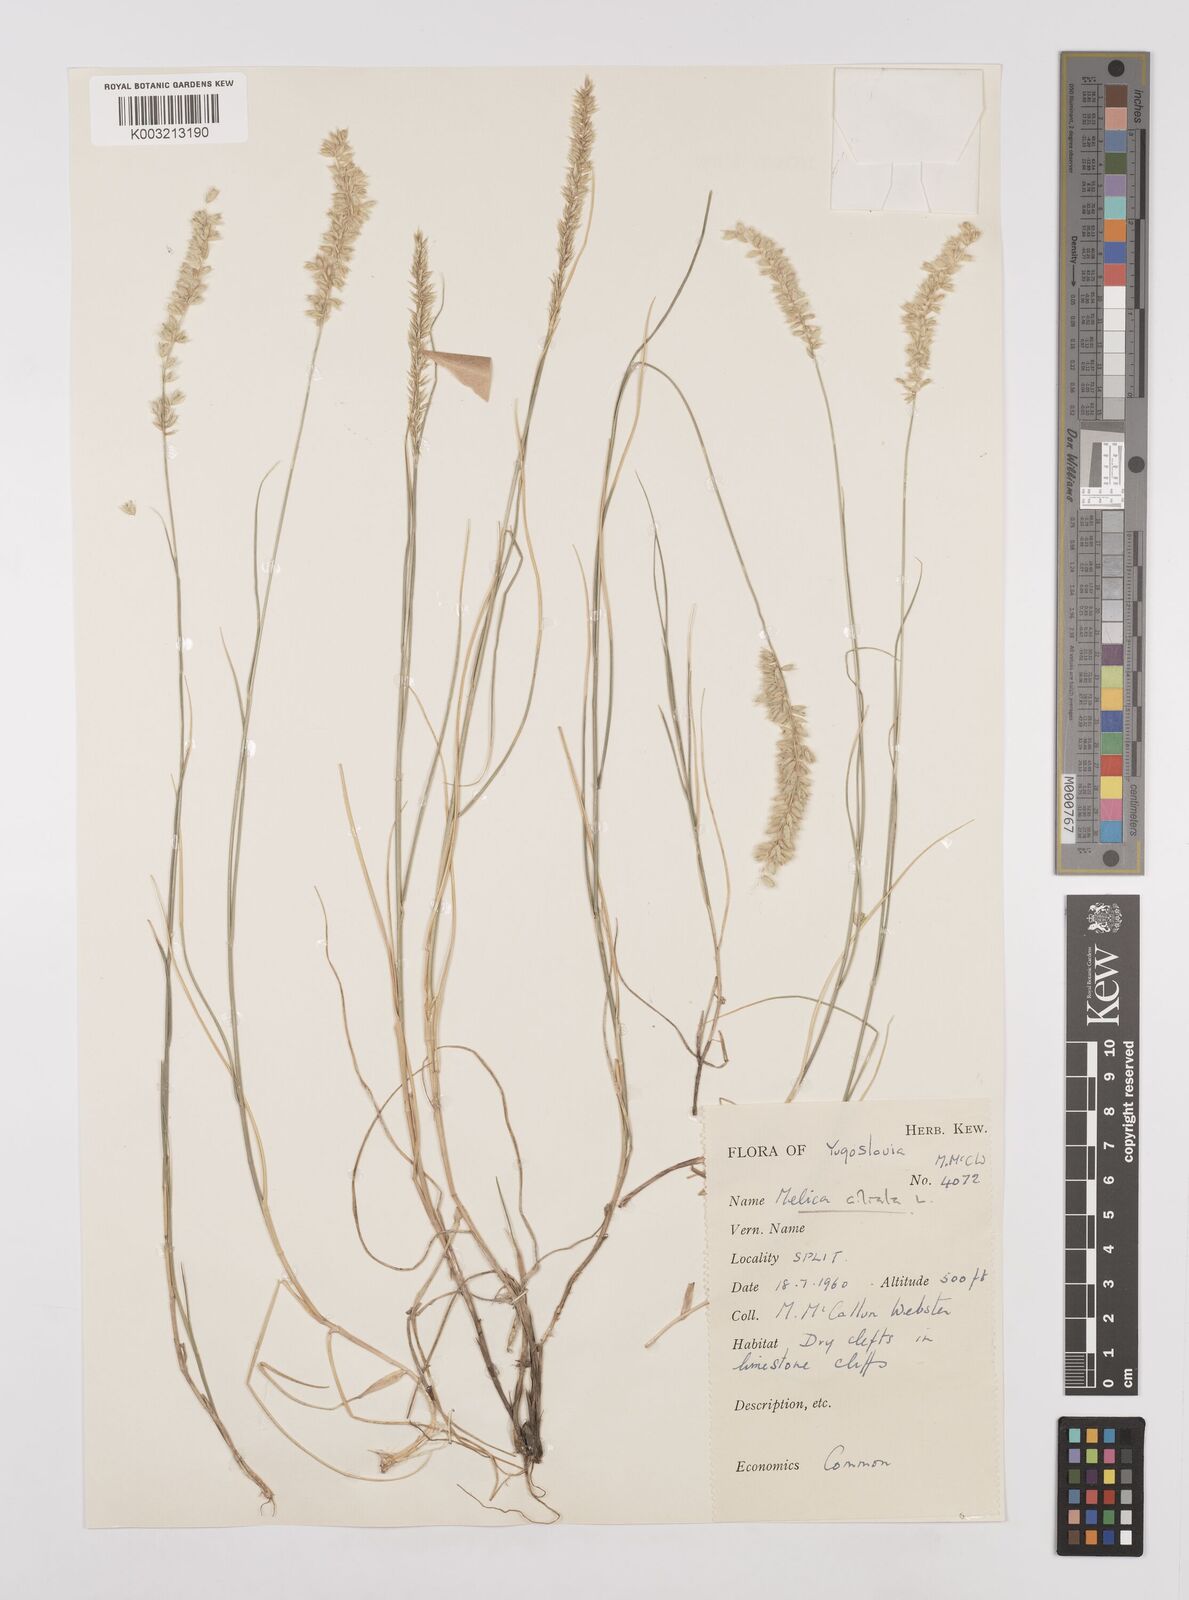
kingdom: Plantae
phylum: Tracheophyta
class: Liliopsida
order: Poales
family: Poaceae
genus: Melica
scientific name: Melica ciliata
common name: Hairy melicgrass
